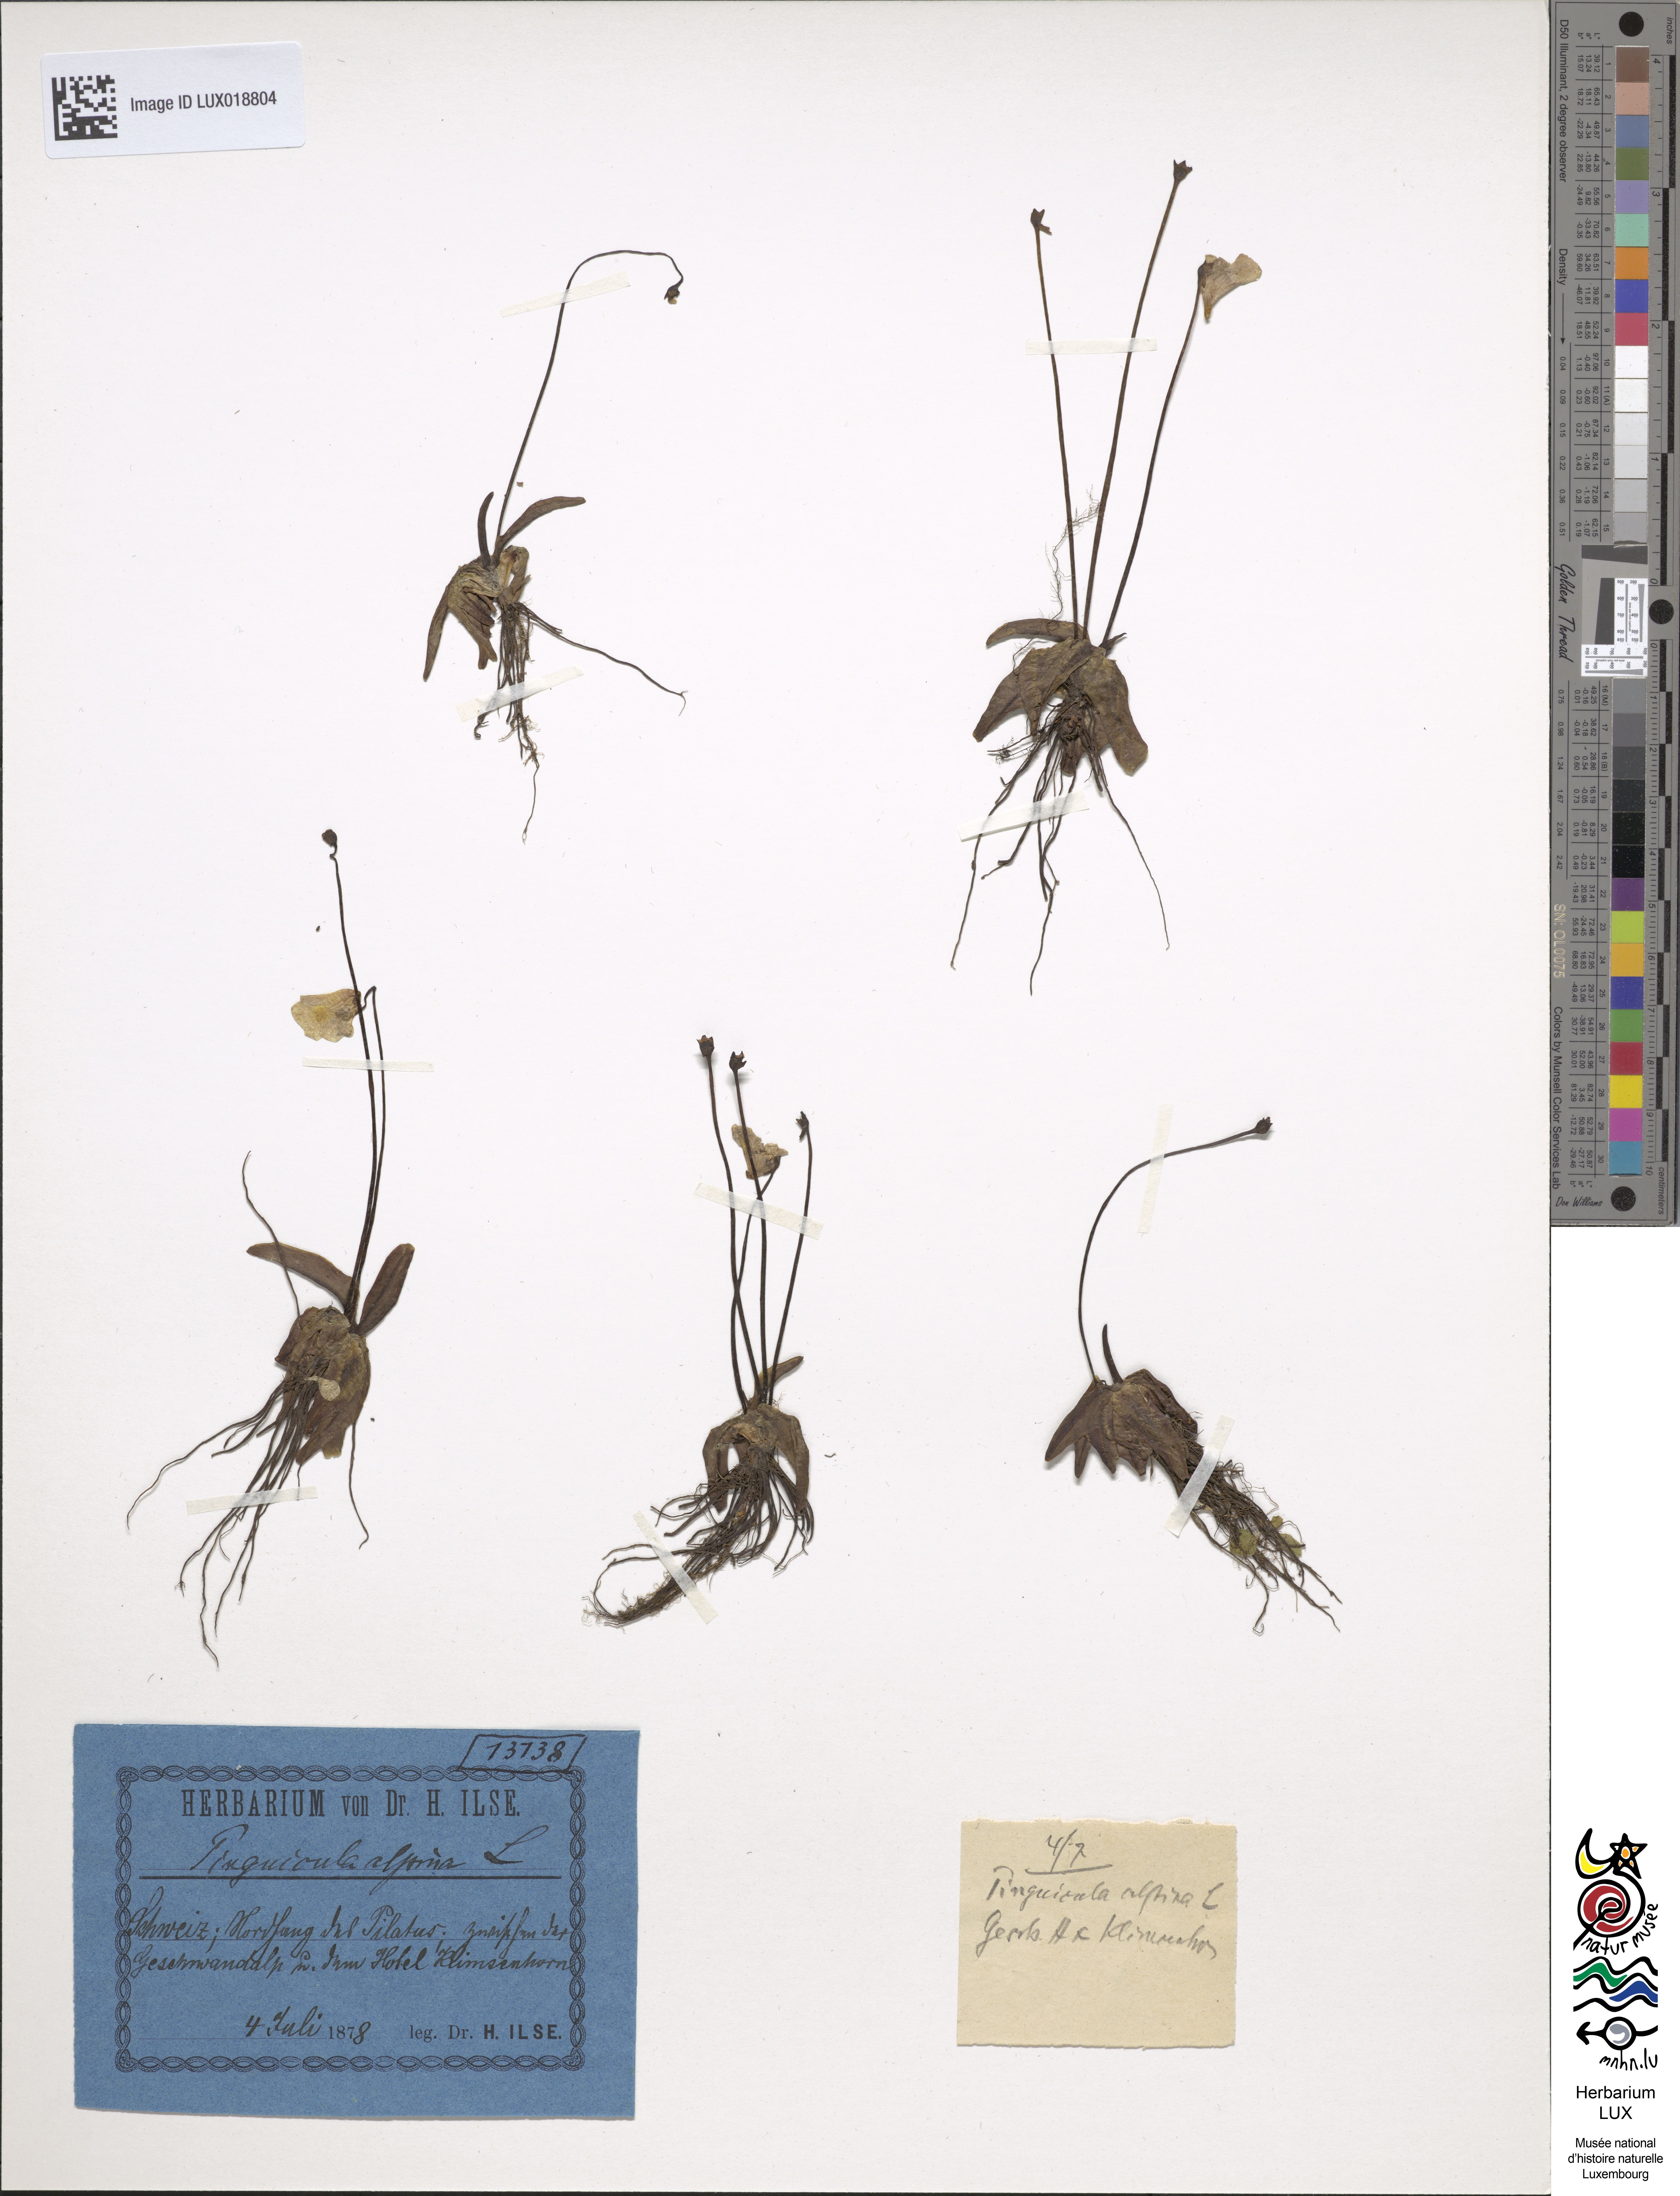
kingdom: Plantae
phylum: Tracheophyta
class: Magnoliopsida
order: Lamiales
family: Lentibulariaceae
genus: Pinguicula
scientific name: Pinguicula alpina
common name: Alpine butterwort
